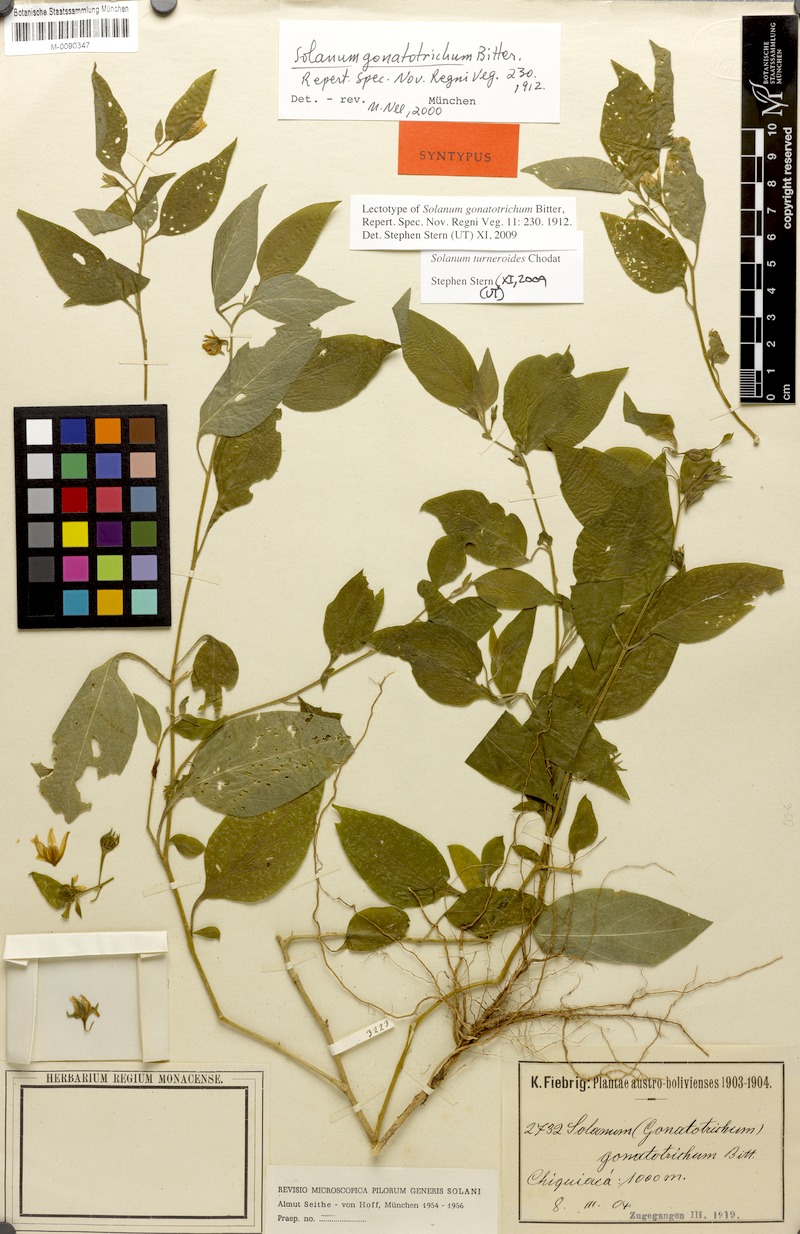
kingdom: Plantae
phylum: Tracheophyta
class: Magnoliopsida
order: Solanales
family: Solanaceae
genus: Solanum
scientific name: Solanum turneroides
